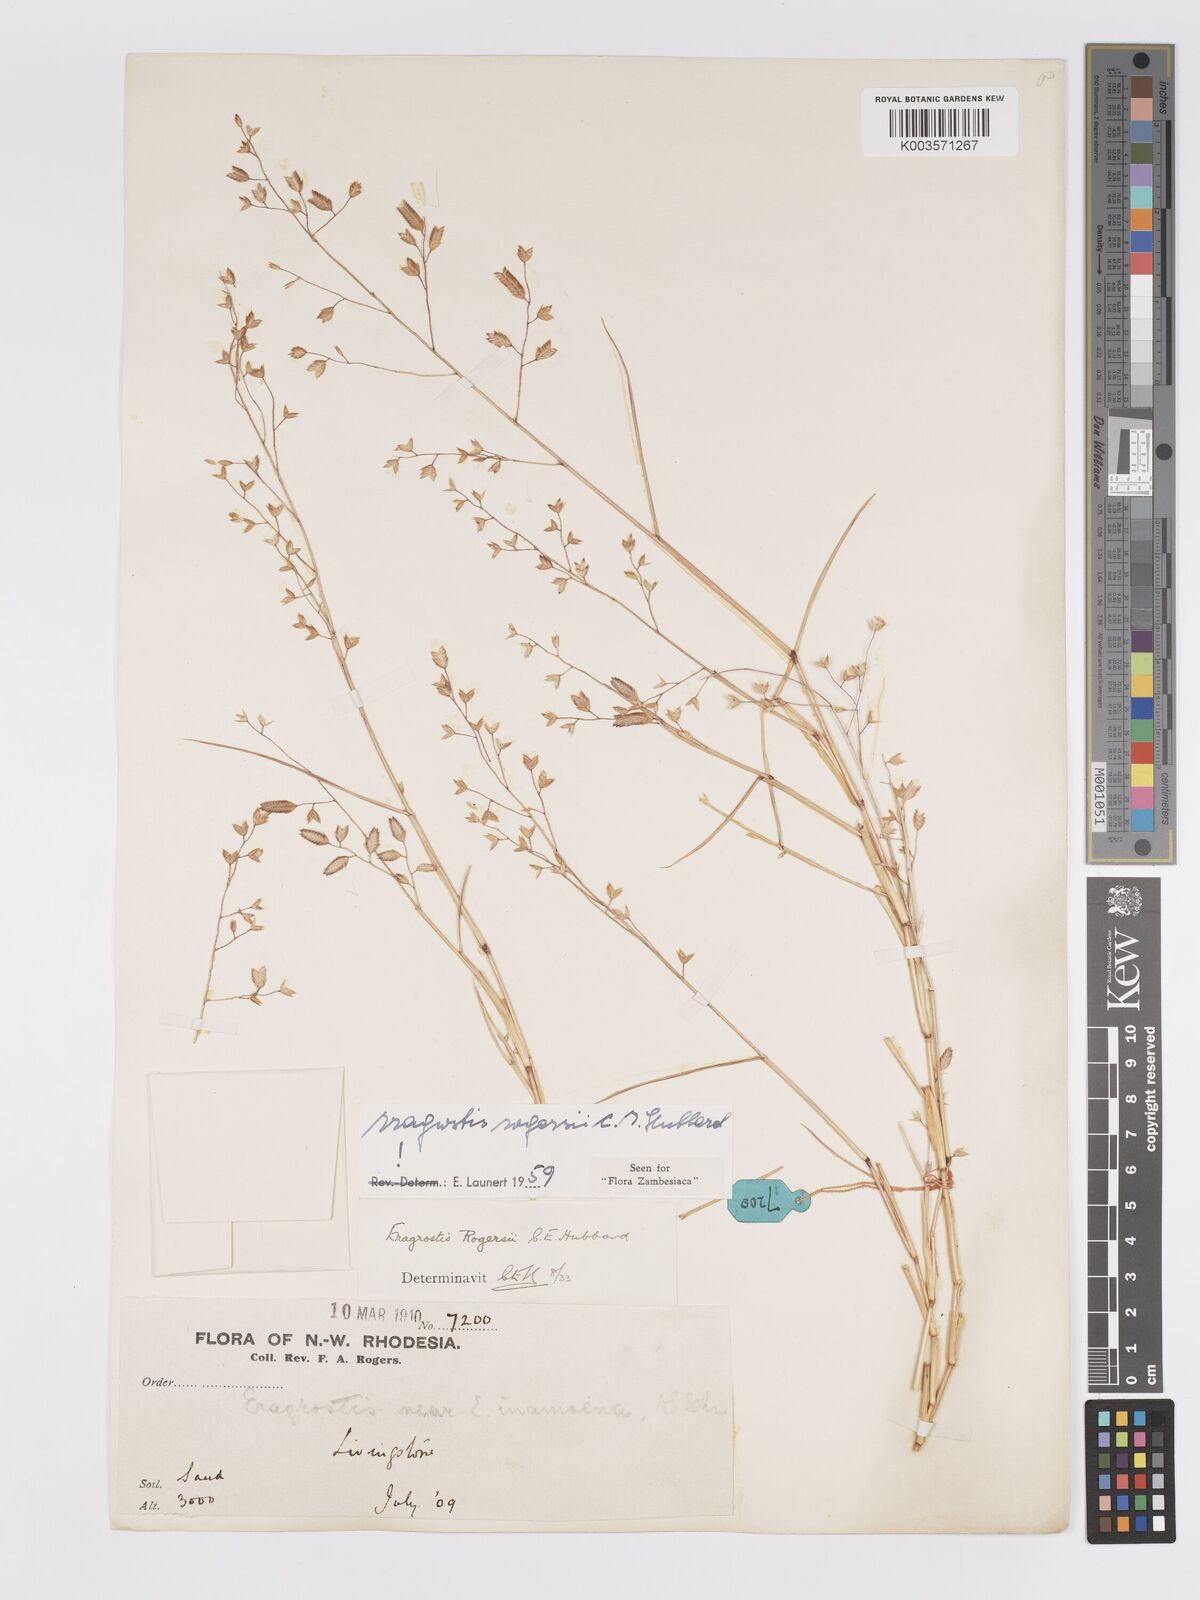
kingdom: Plantae
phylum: Tracheophyta
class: Liliopsida
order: Poales
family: Poaceae
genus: Eragrostis
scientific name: Eragrostis rogersii
